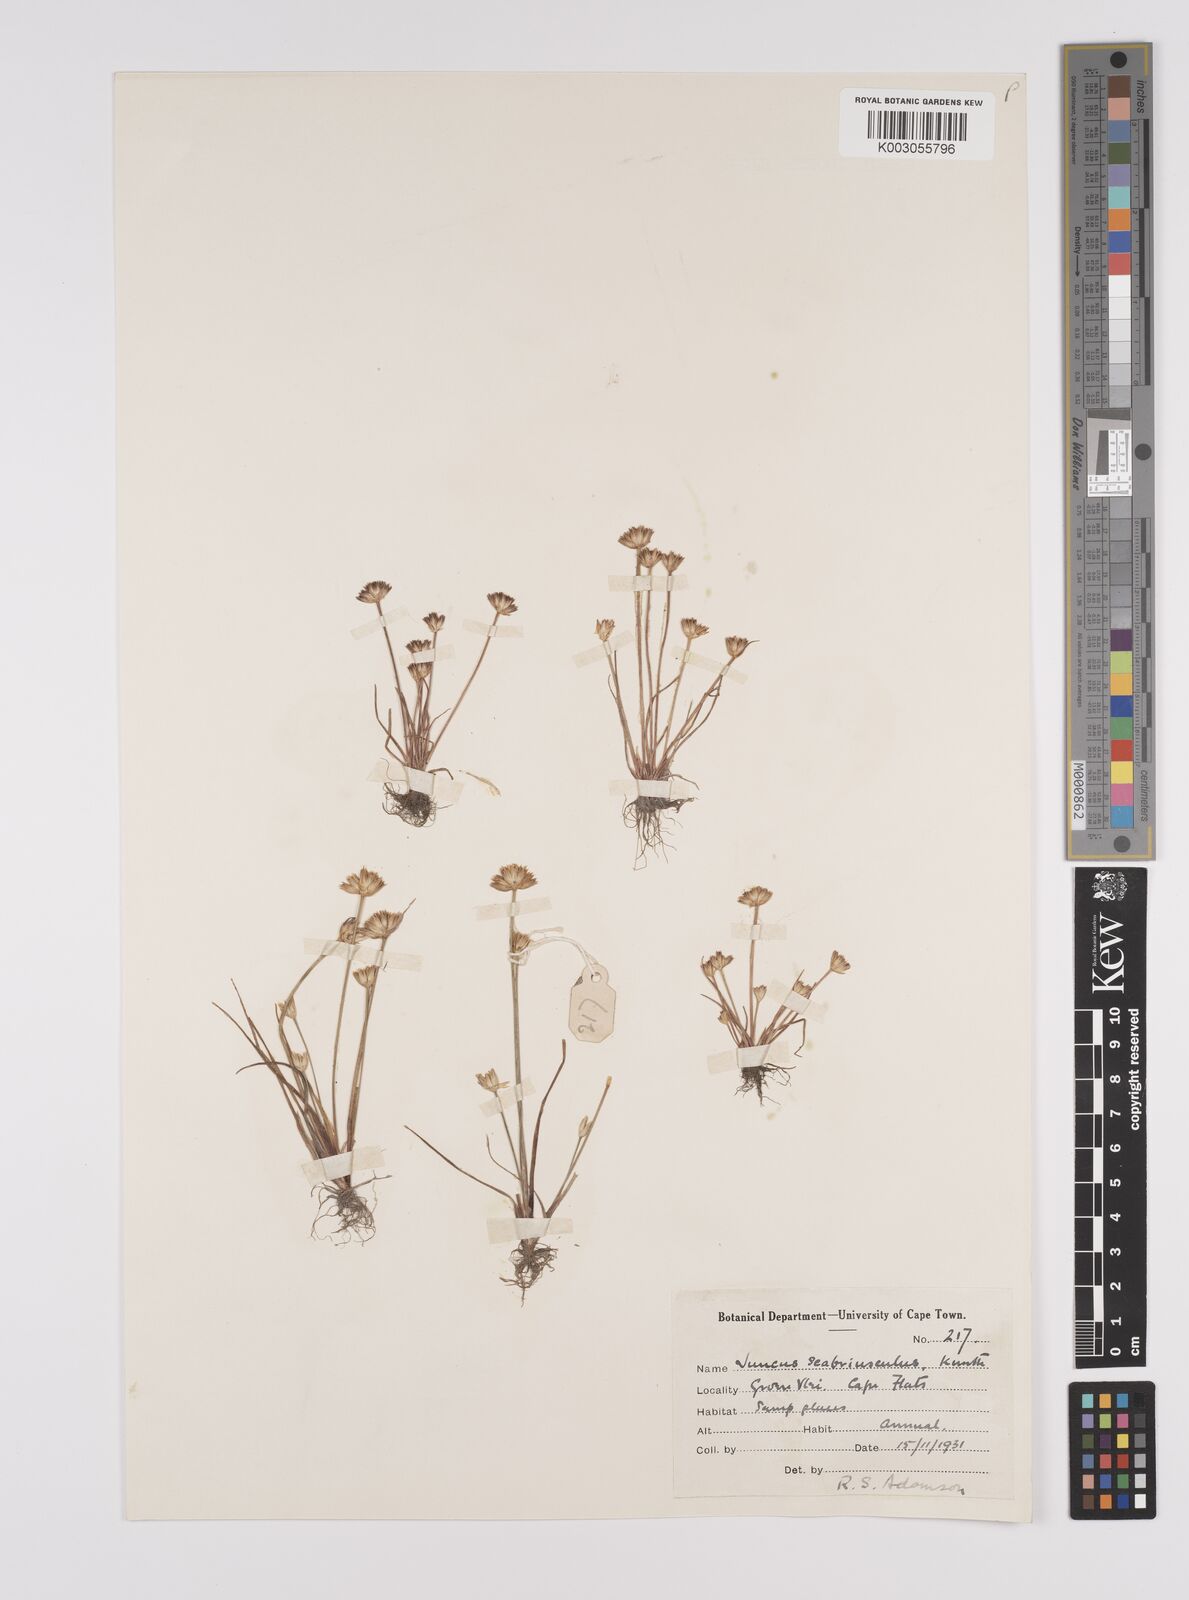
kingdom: Plantae
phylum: Tracheophyta
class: Liliopsida
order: Poales
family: Juncaceae
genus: Juncus
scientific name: Juncus scabriusculus
